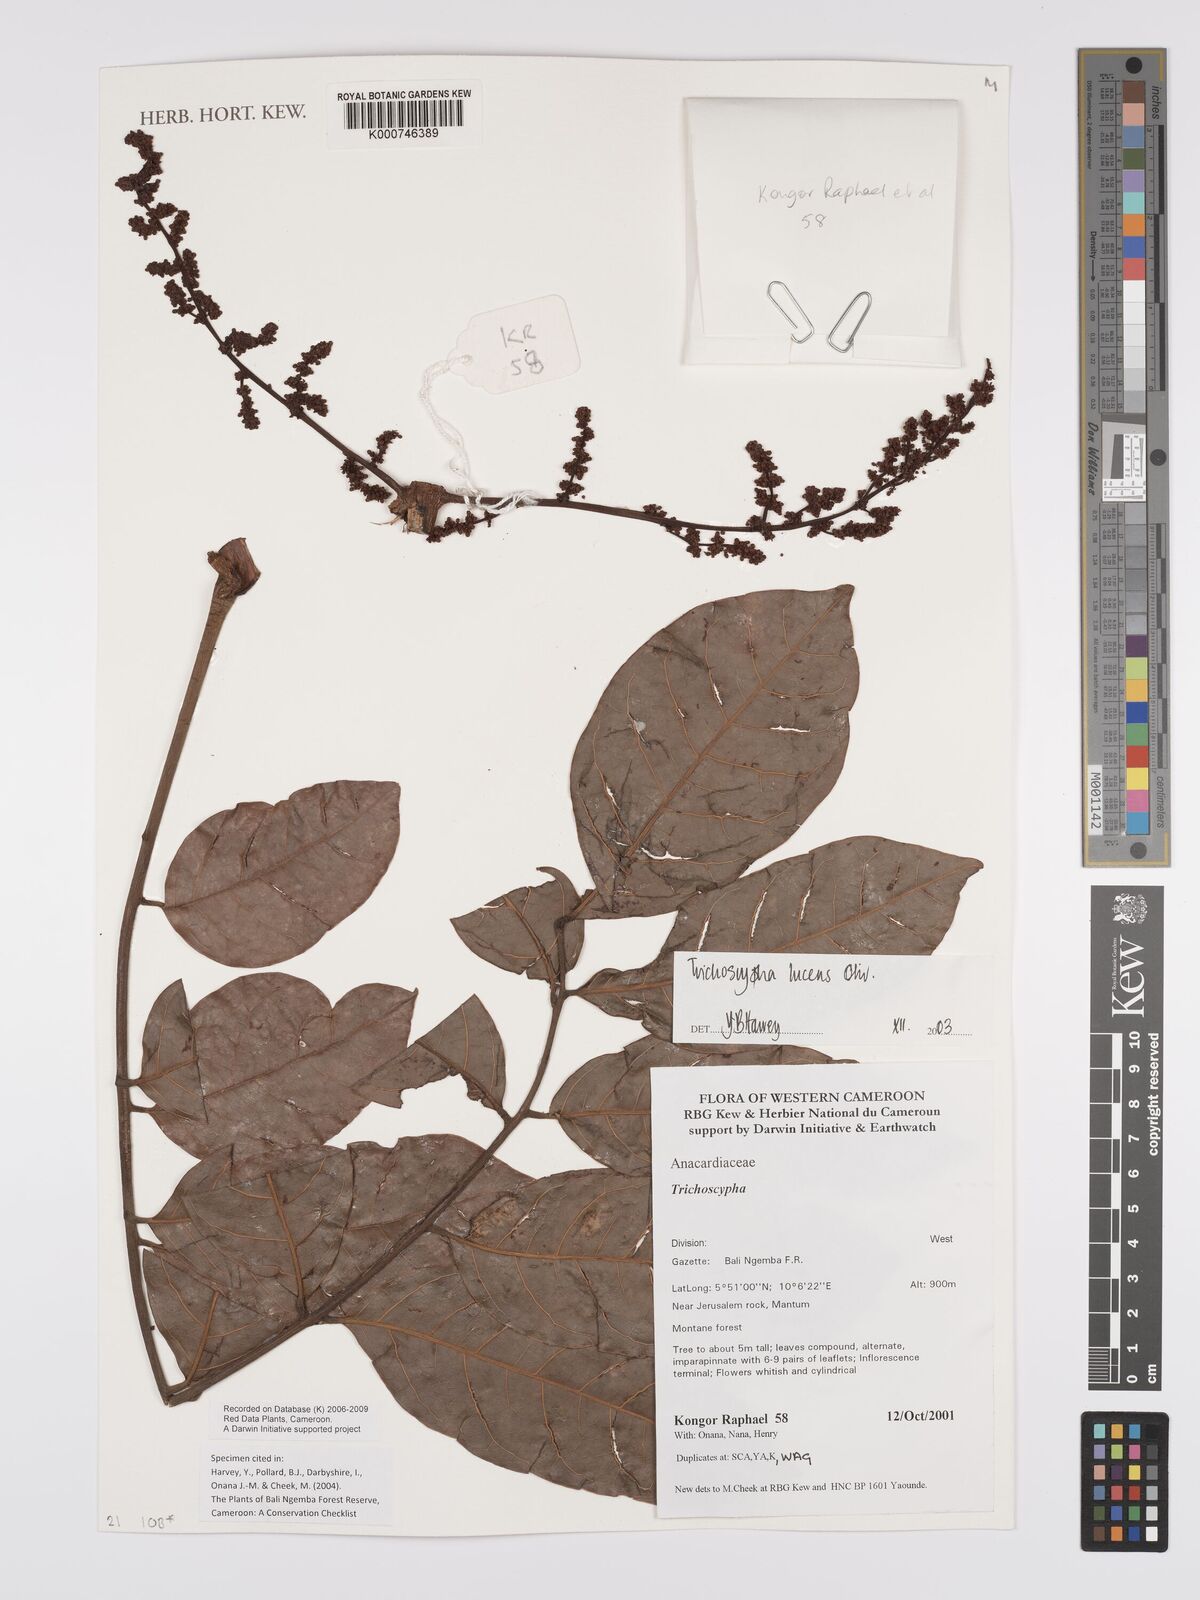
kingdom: Plantae
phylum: Tracheophyta
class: Magnoliopsida
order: Sapindales
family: Anacardiaceae
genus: Trichoscypha
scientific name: Trichoscypha lucens
